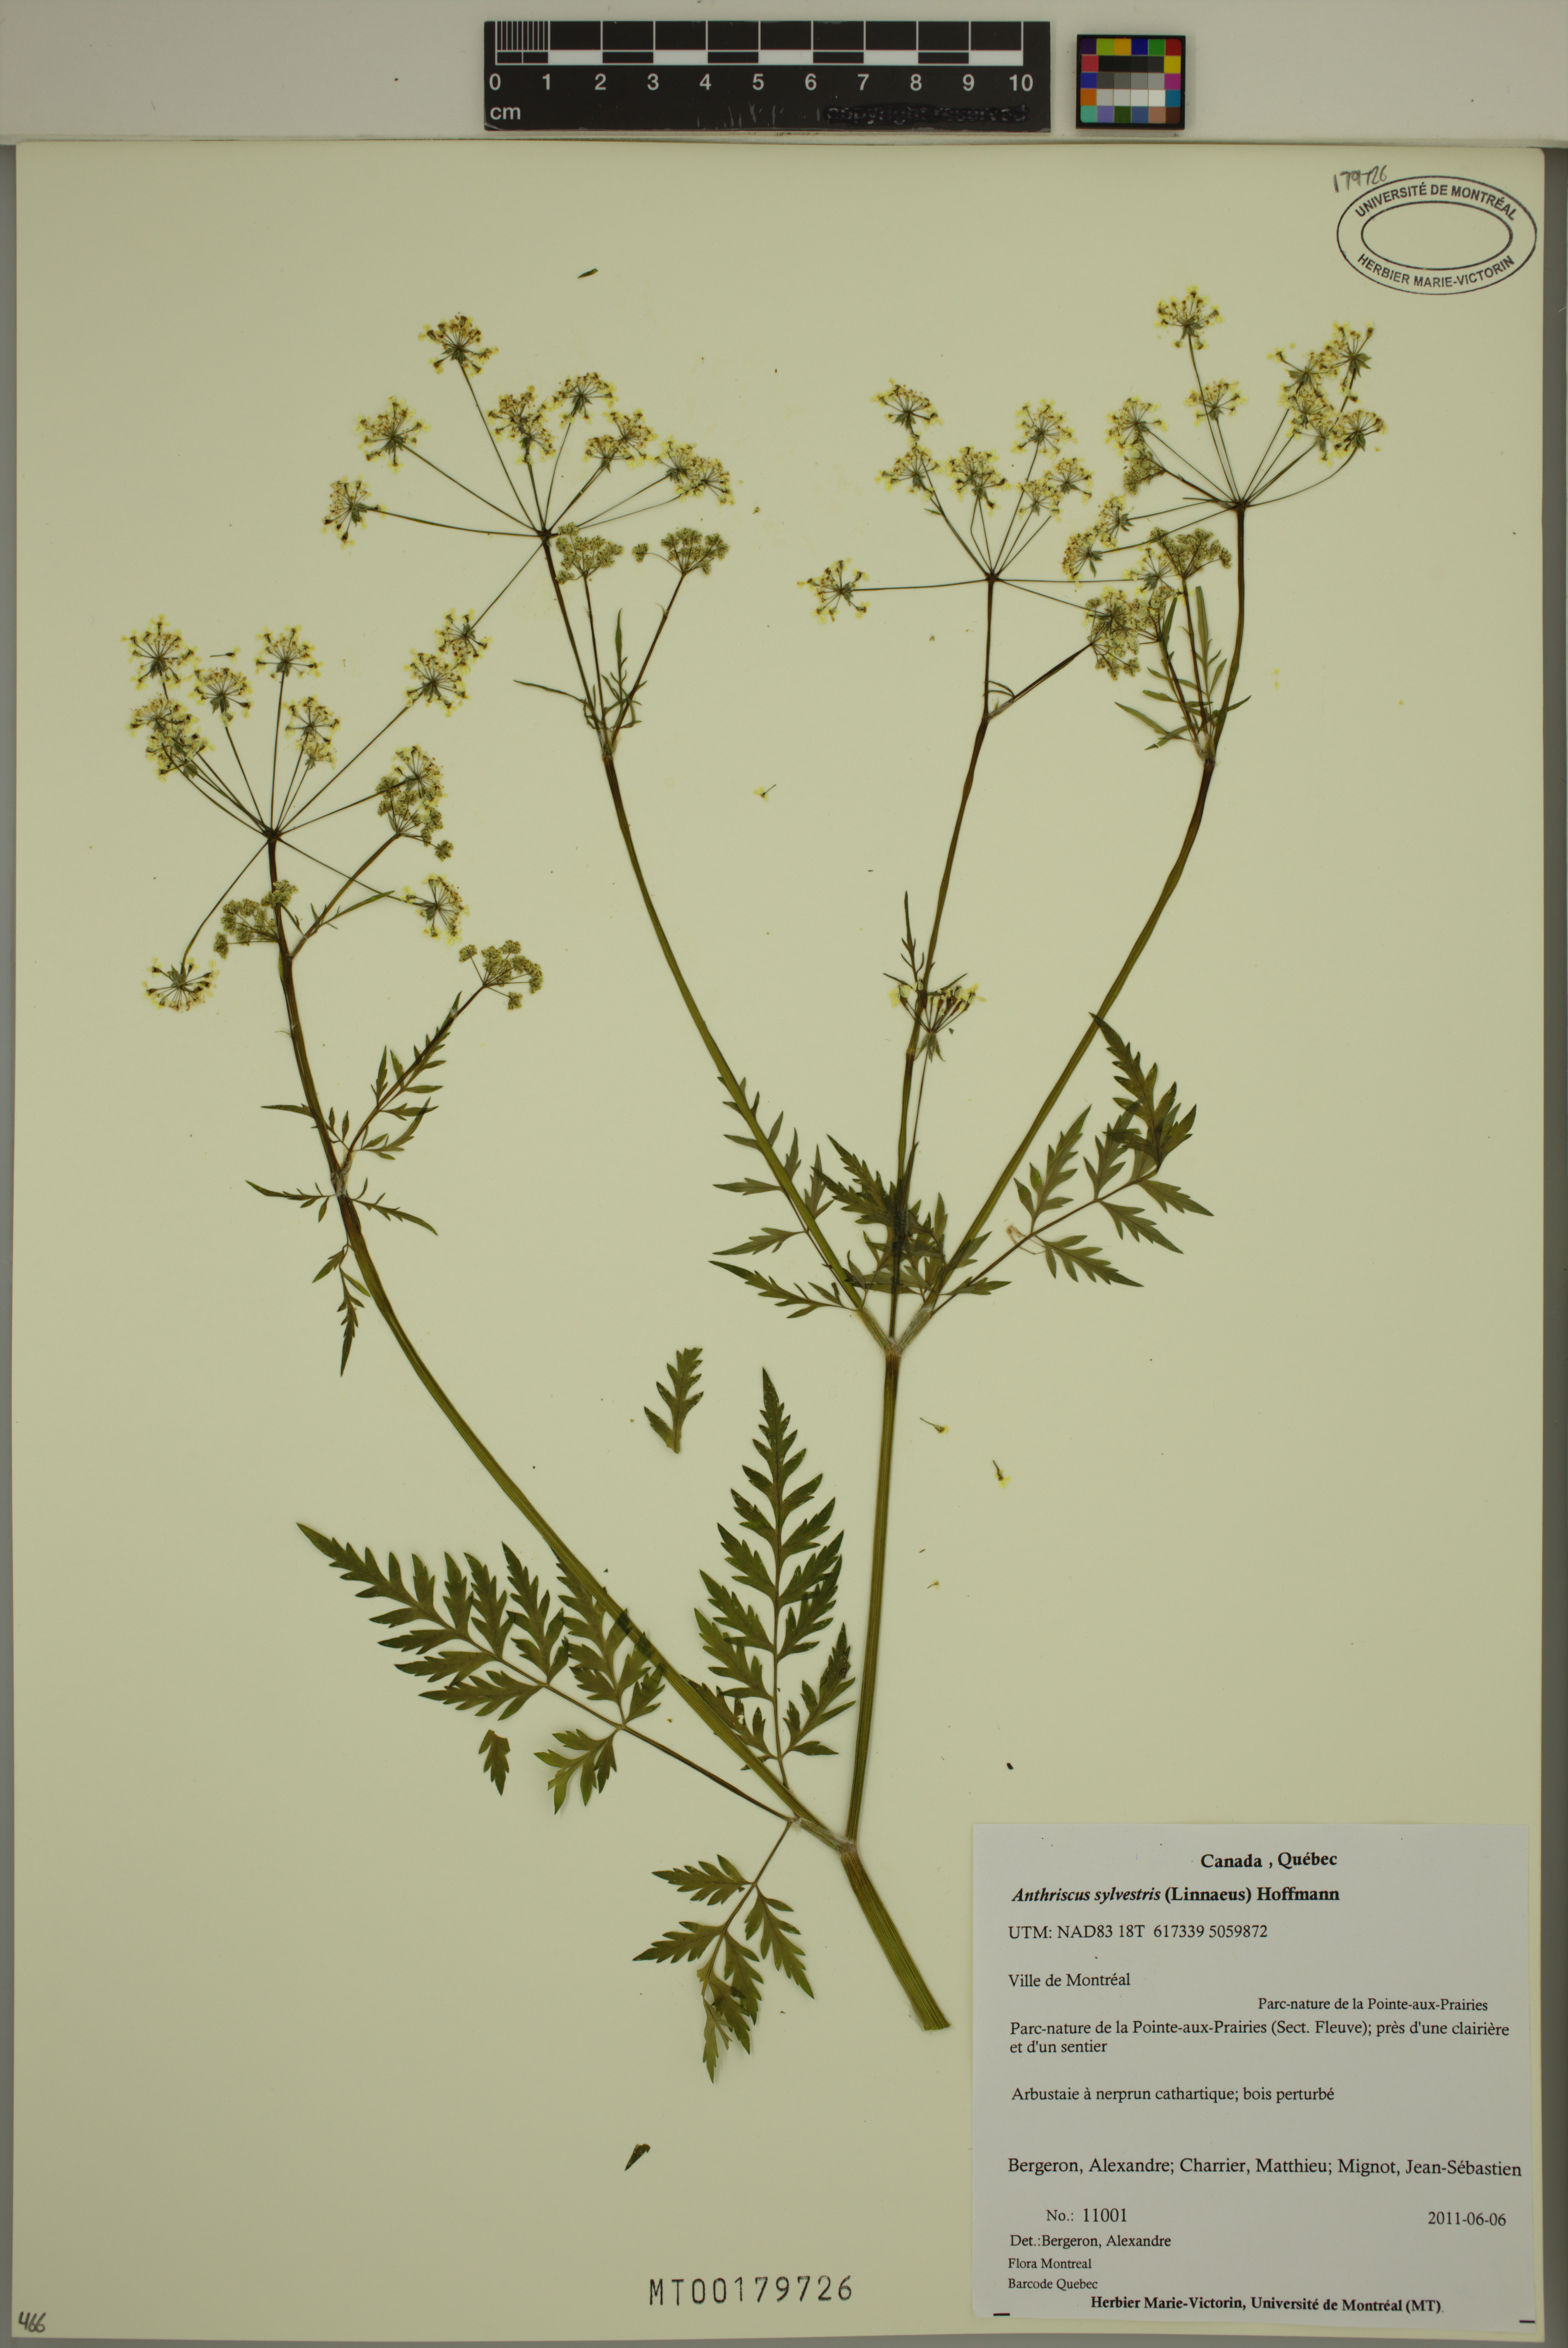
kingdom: Plantae
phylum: Tracheophyta
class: Magnoliopsida
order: Apiales
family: Apiaceae
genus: Anthriscus
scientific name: Anthriscus sylvestris
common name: Cow parsley
